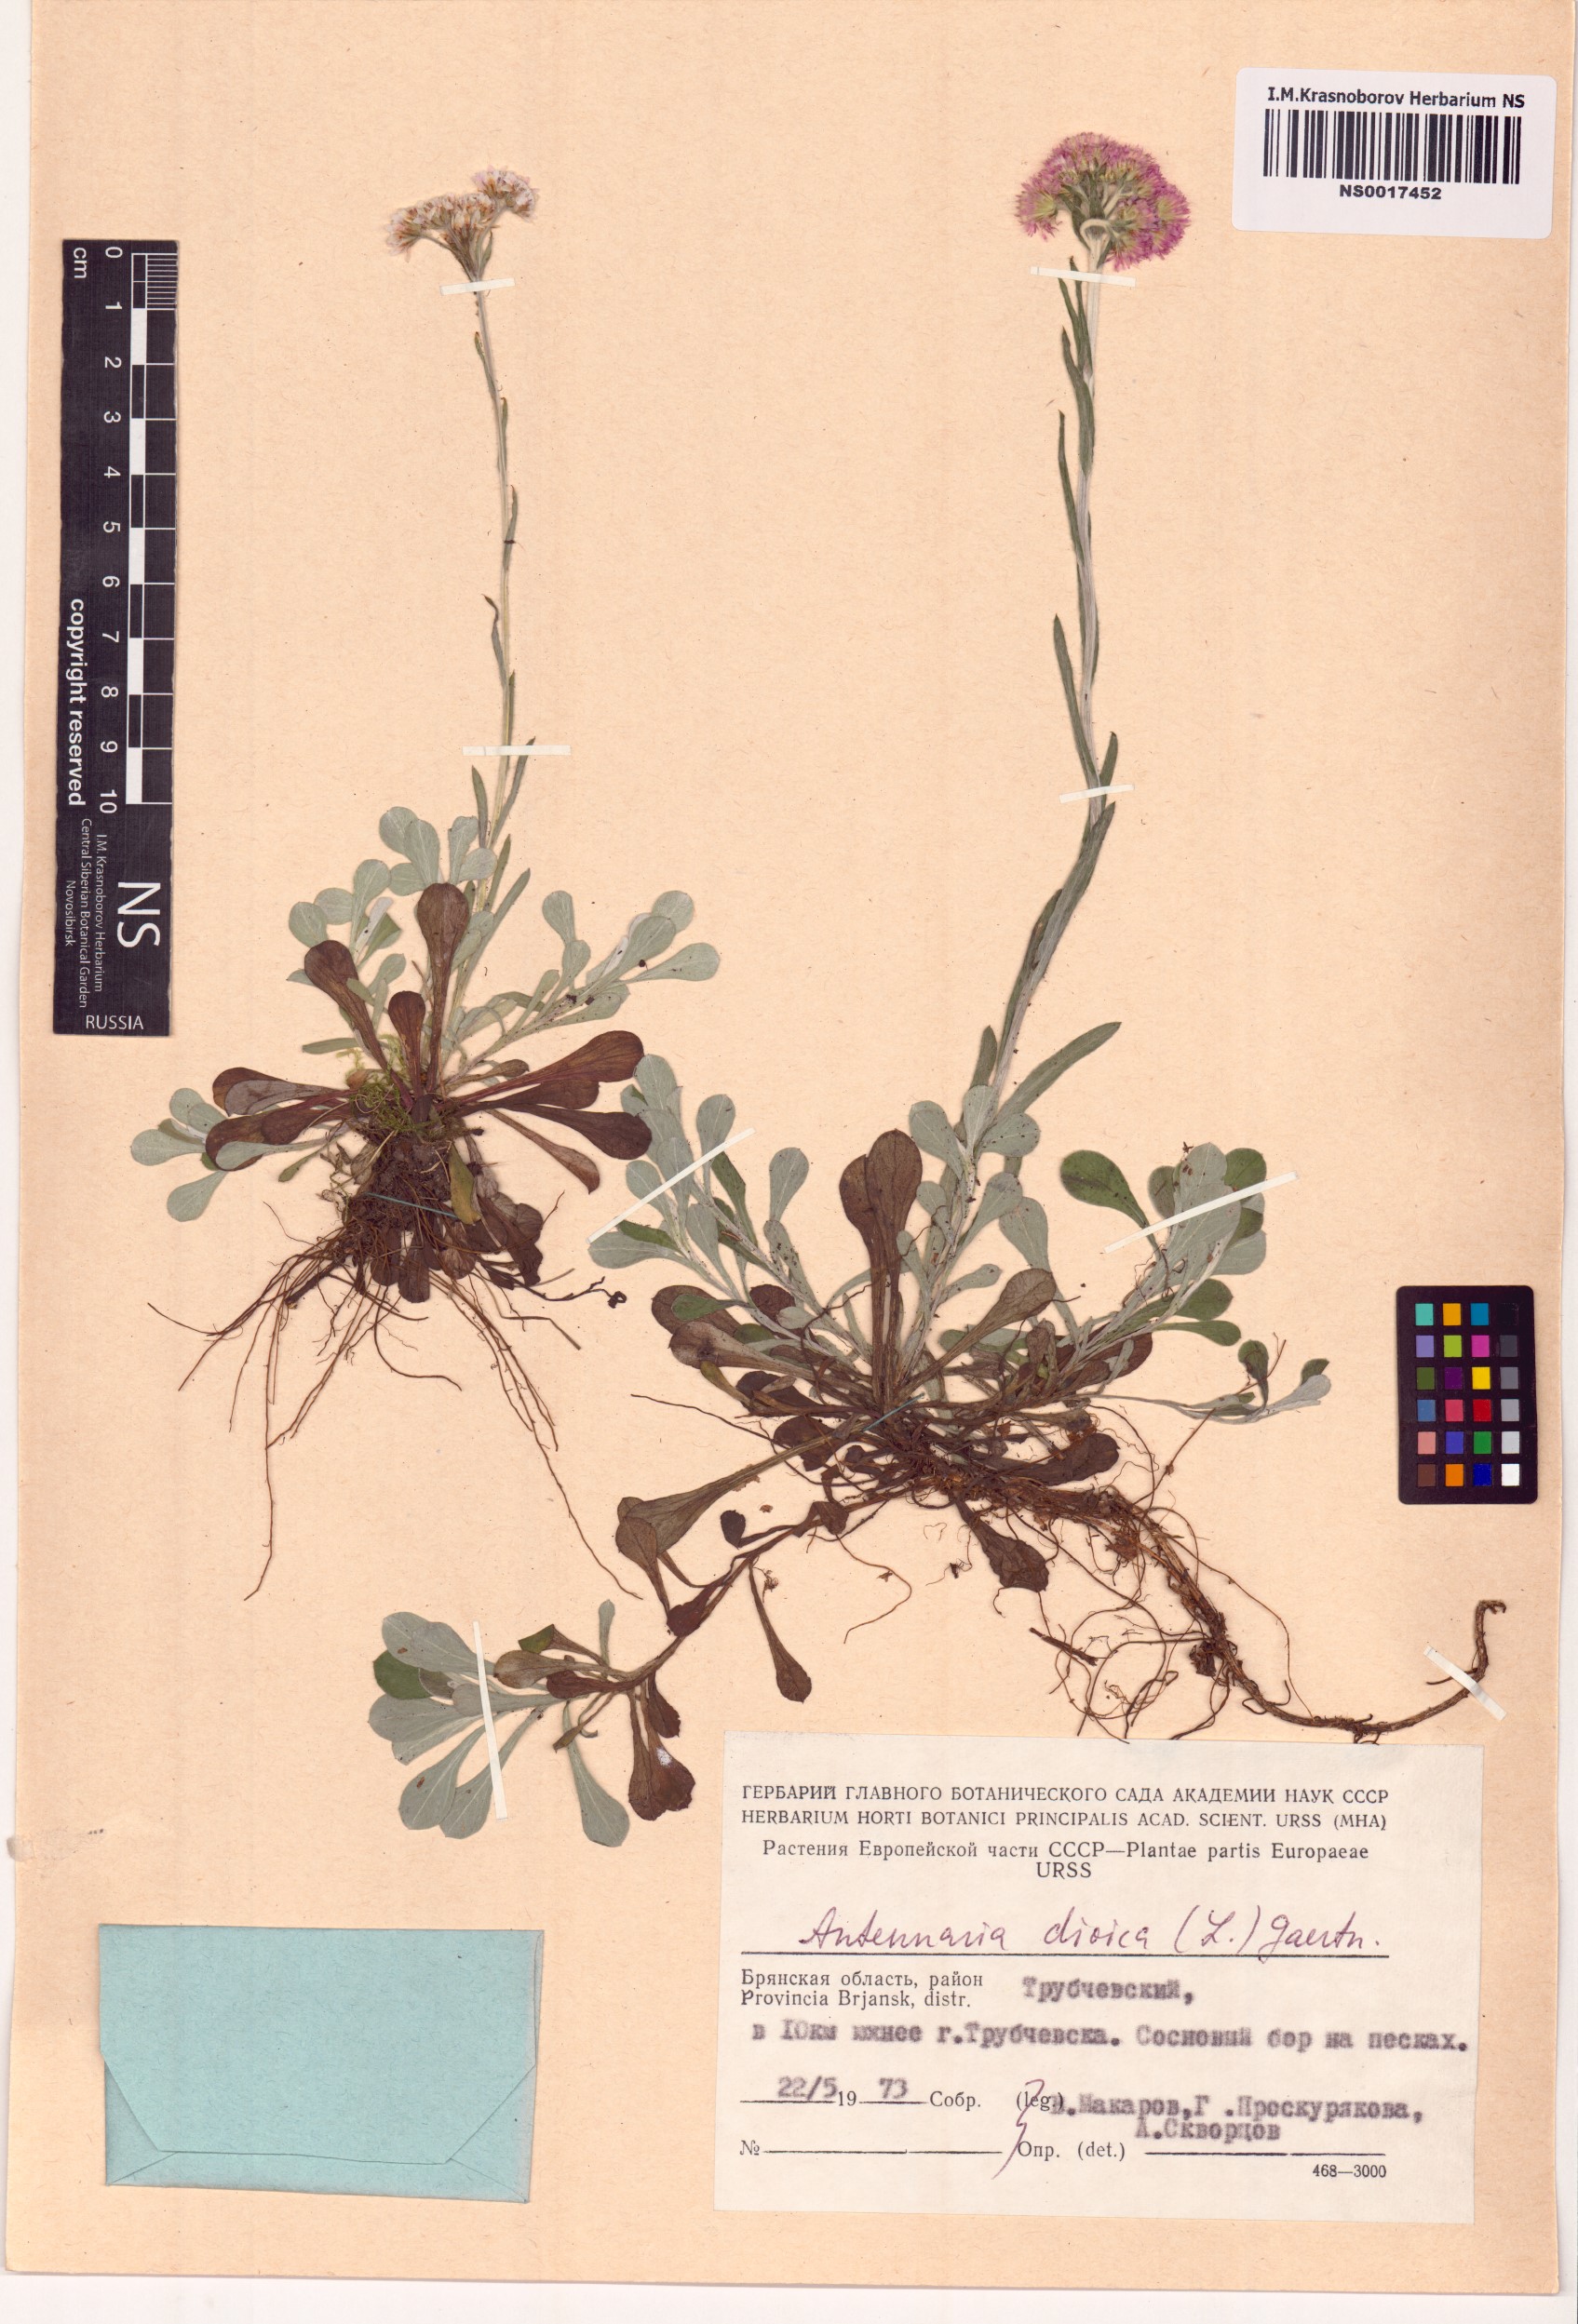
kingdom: Plantae
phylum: Tracheophyta
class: Magnoliopsida
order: Asterales
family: Asteraceae
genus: Antennaria
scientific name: Antennaria dioica
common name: Mountain everlasting
